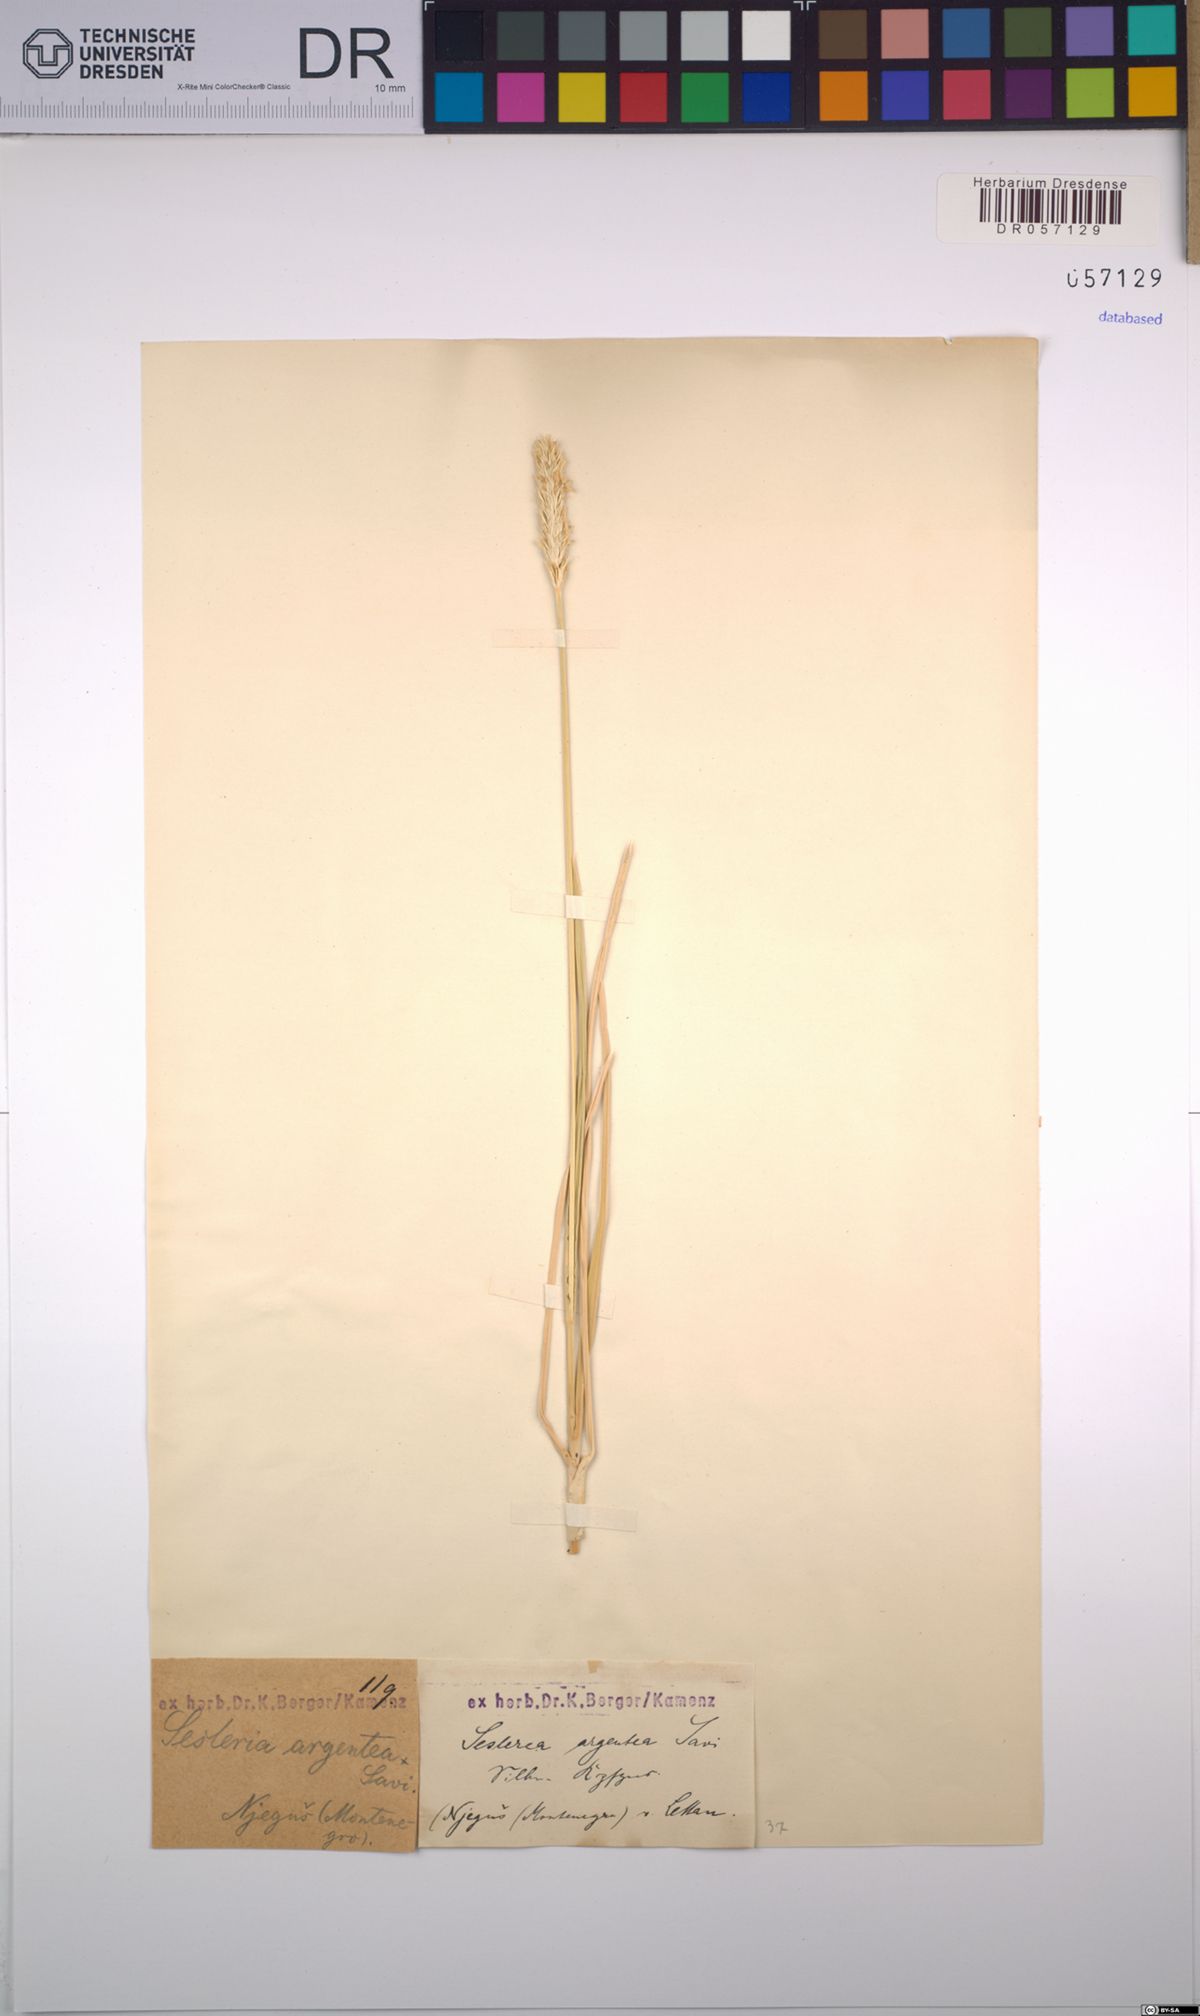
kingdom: Plantae
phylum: Tracheophyta
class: Liliopsida
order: Poales
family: Poaceae
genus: Sesleria
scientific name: Sesleria argentea
